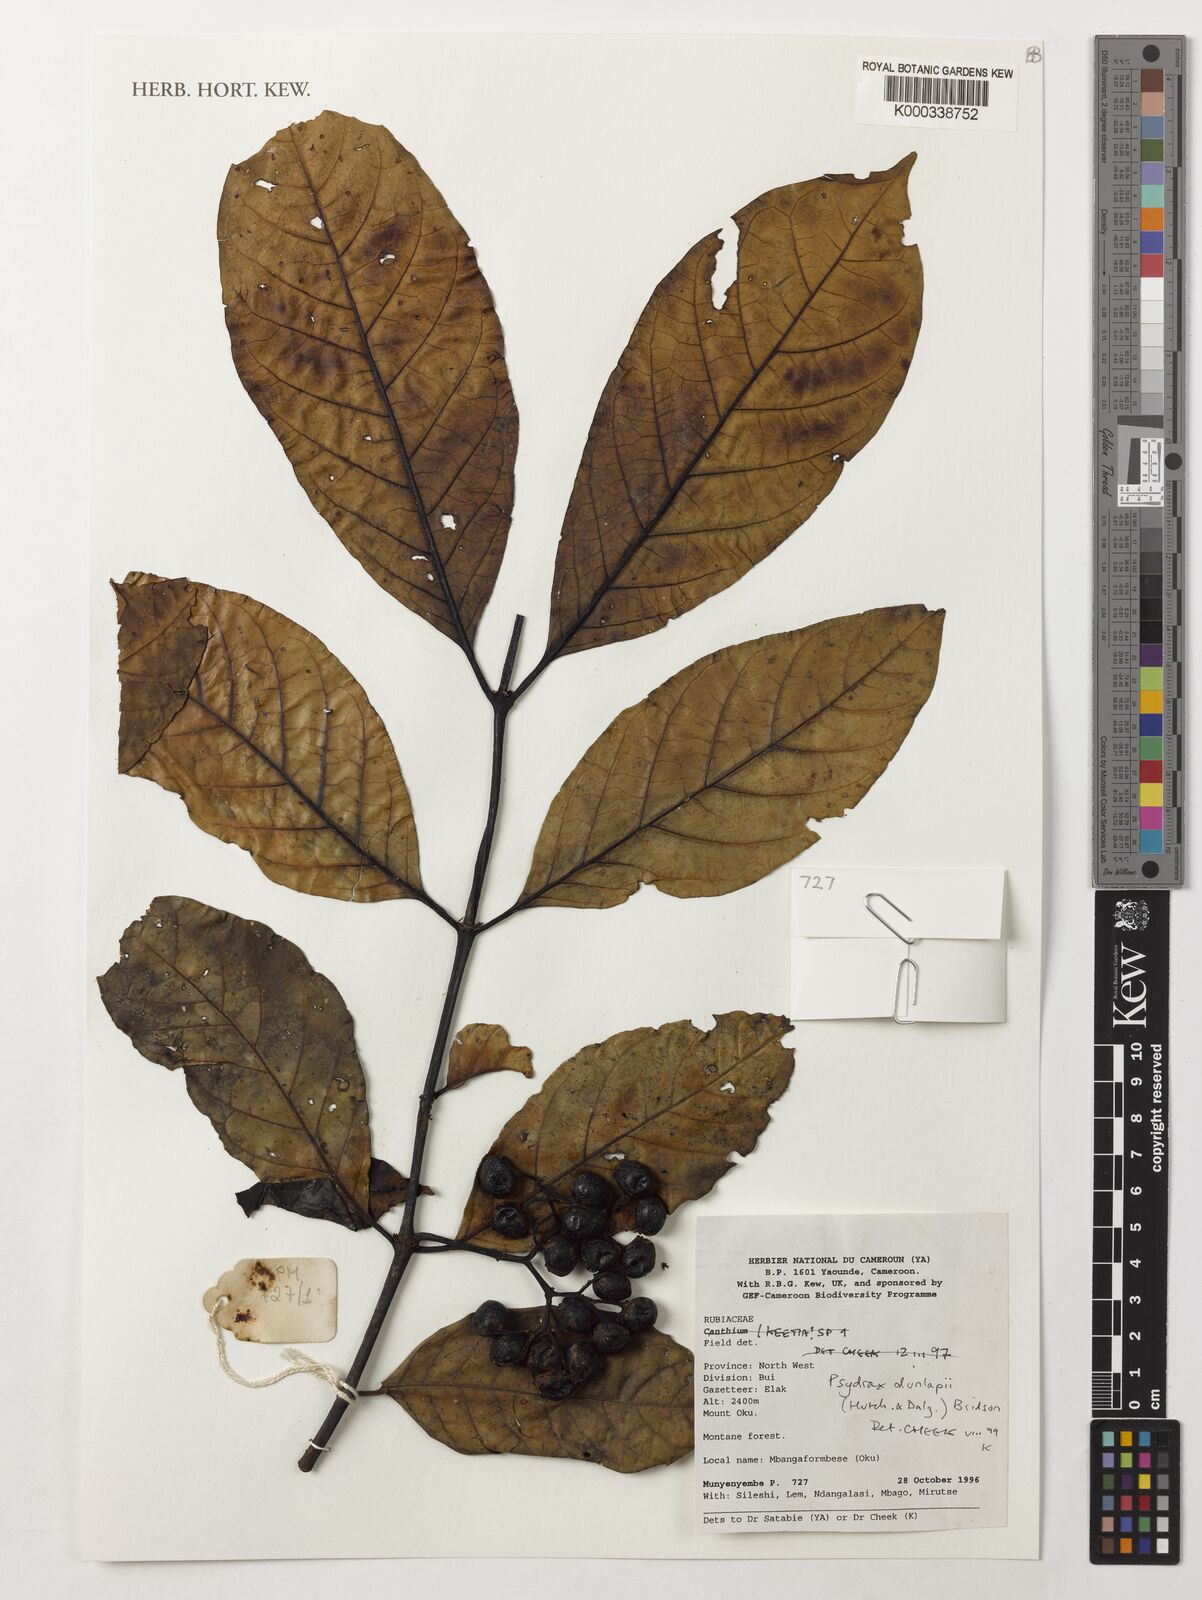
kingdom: Plantae
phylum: Tracheophyta
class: Magnoliopsida
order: Gentianales
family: Rubiaceae
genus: Psydrax
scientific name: Psydrax dunlapii
